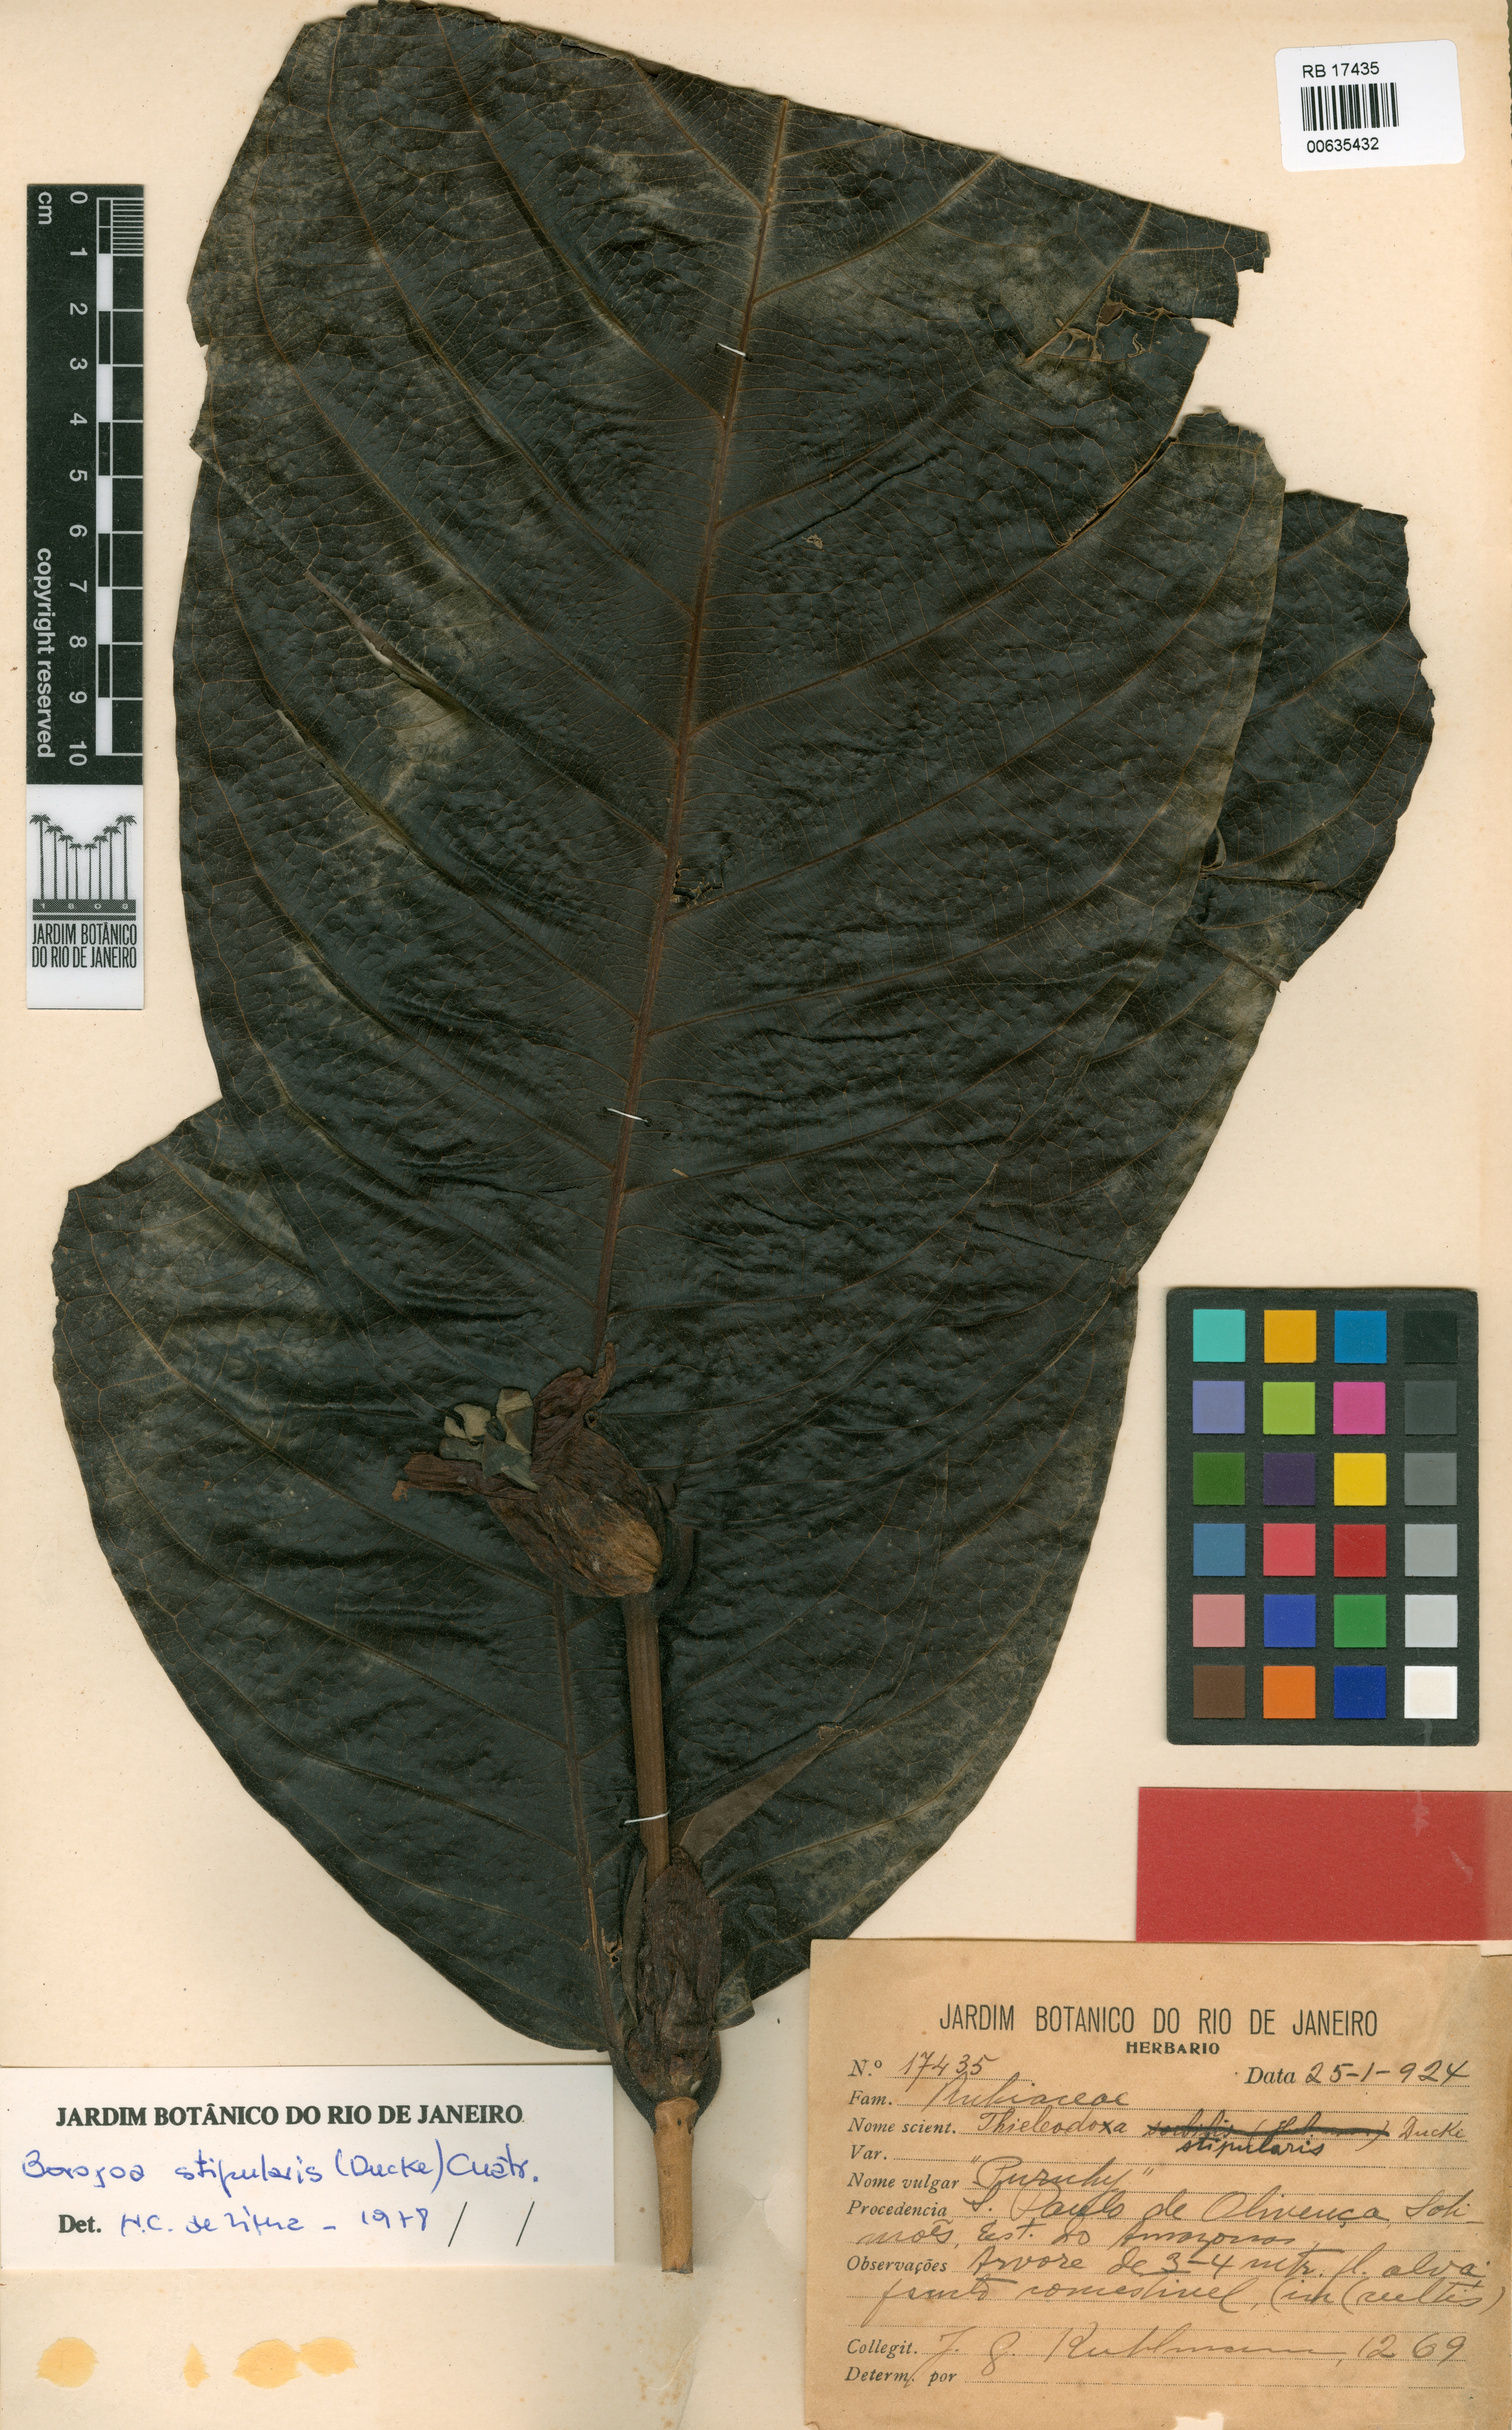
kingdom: Plantae
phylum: Tracheophyta
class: Magnoliopsida
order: Gentianales
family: Rubiaceae
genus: Alibertia
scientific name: Alibertia verticillata
